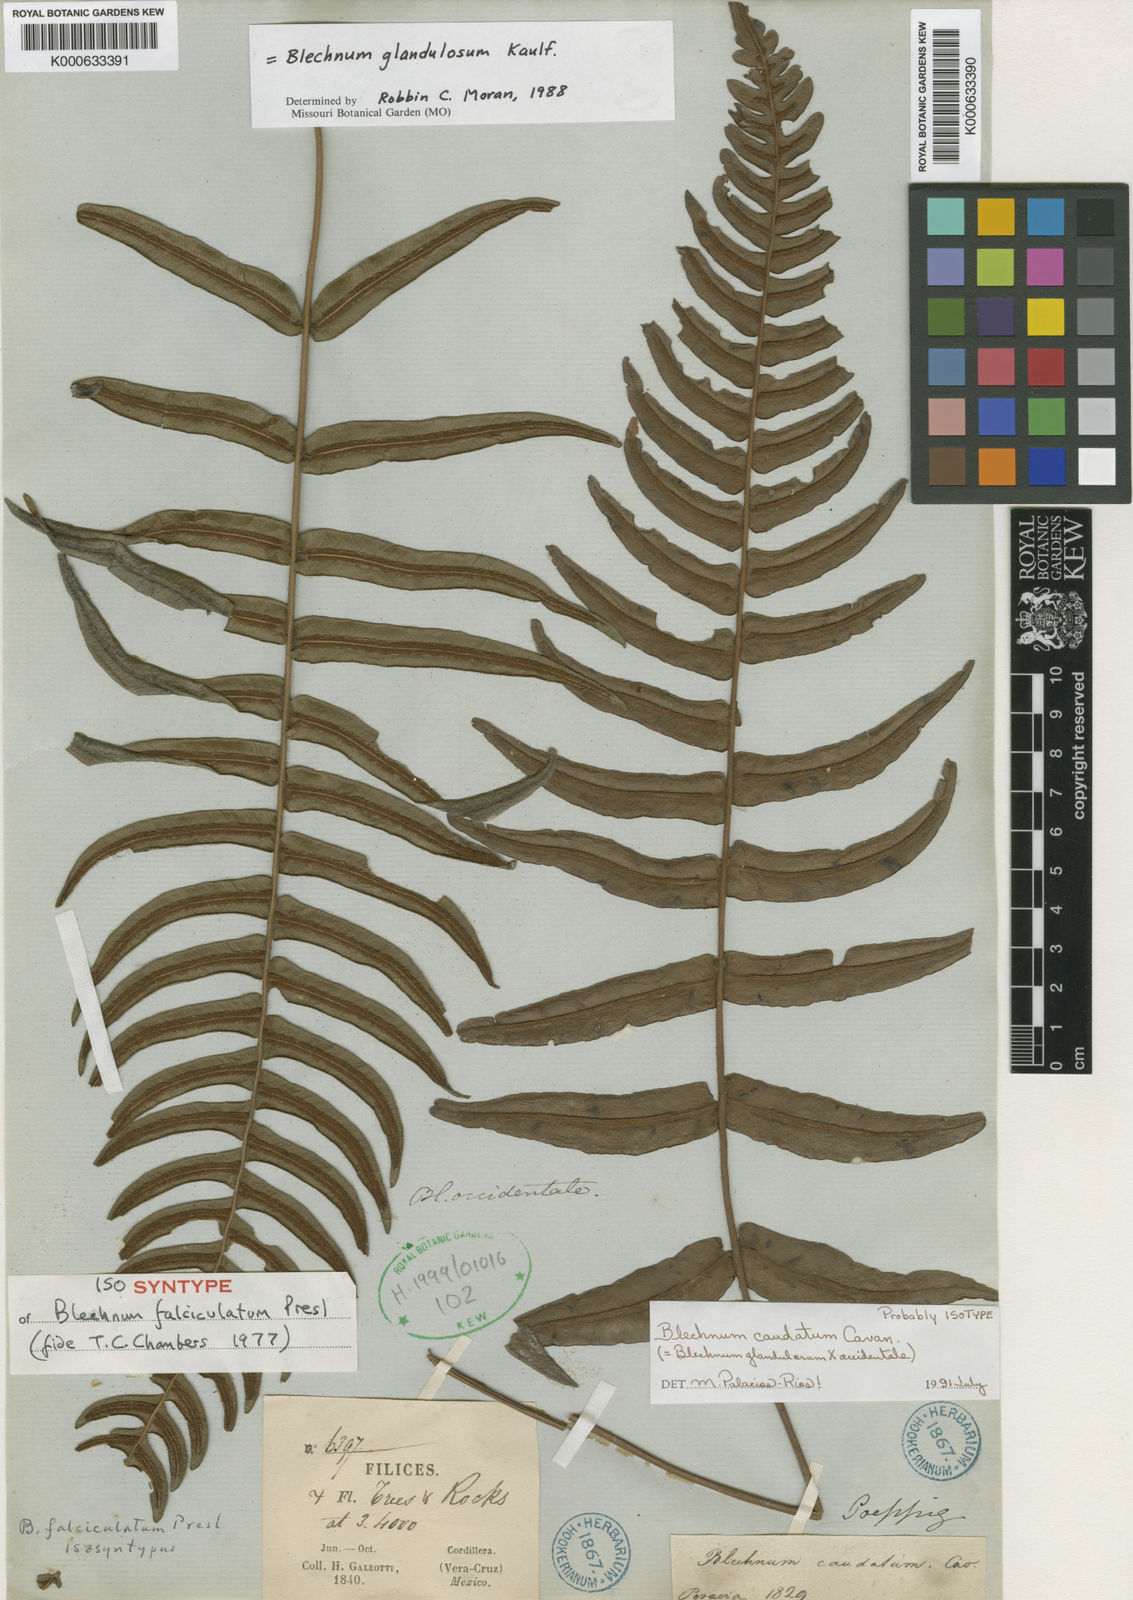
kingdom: Plantae
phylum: Tracheophyta
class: Polypodiopsida
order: Polypodiales
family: Blechnaceae
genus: Blechnum
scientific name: Blechnum occidentale
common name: Hammock fern
